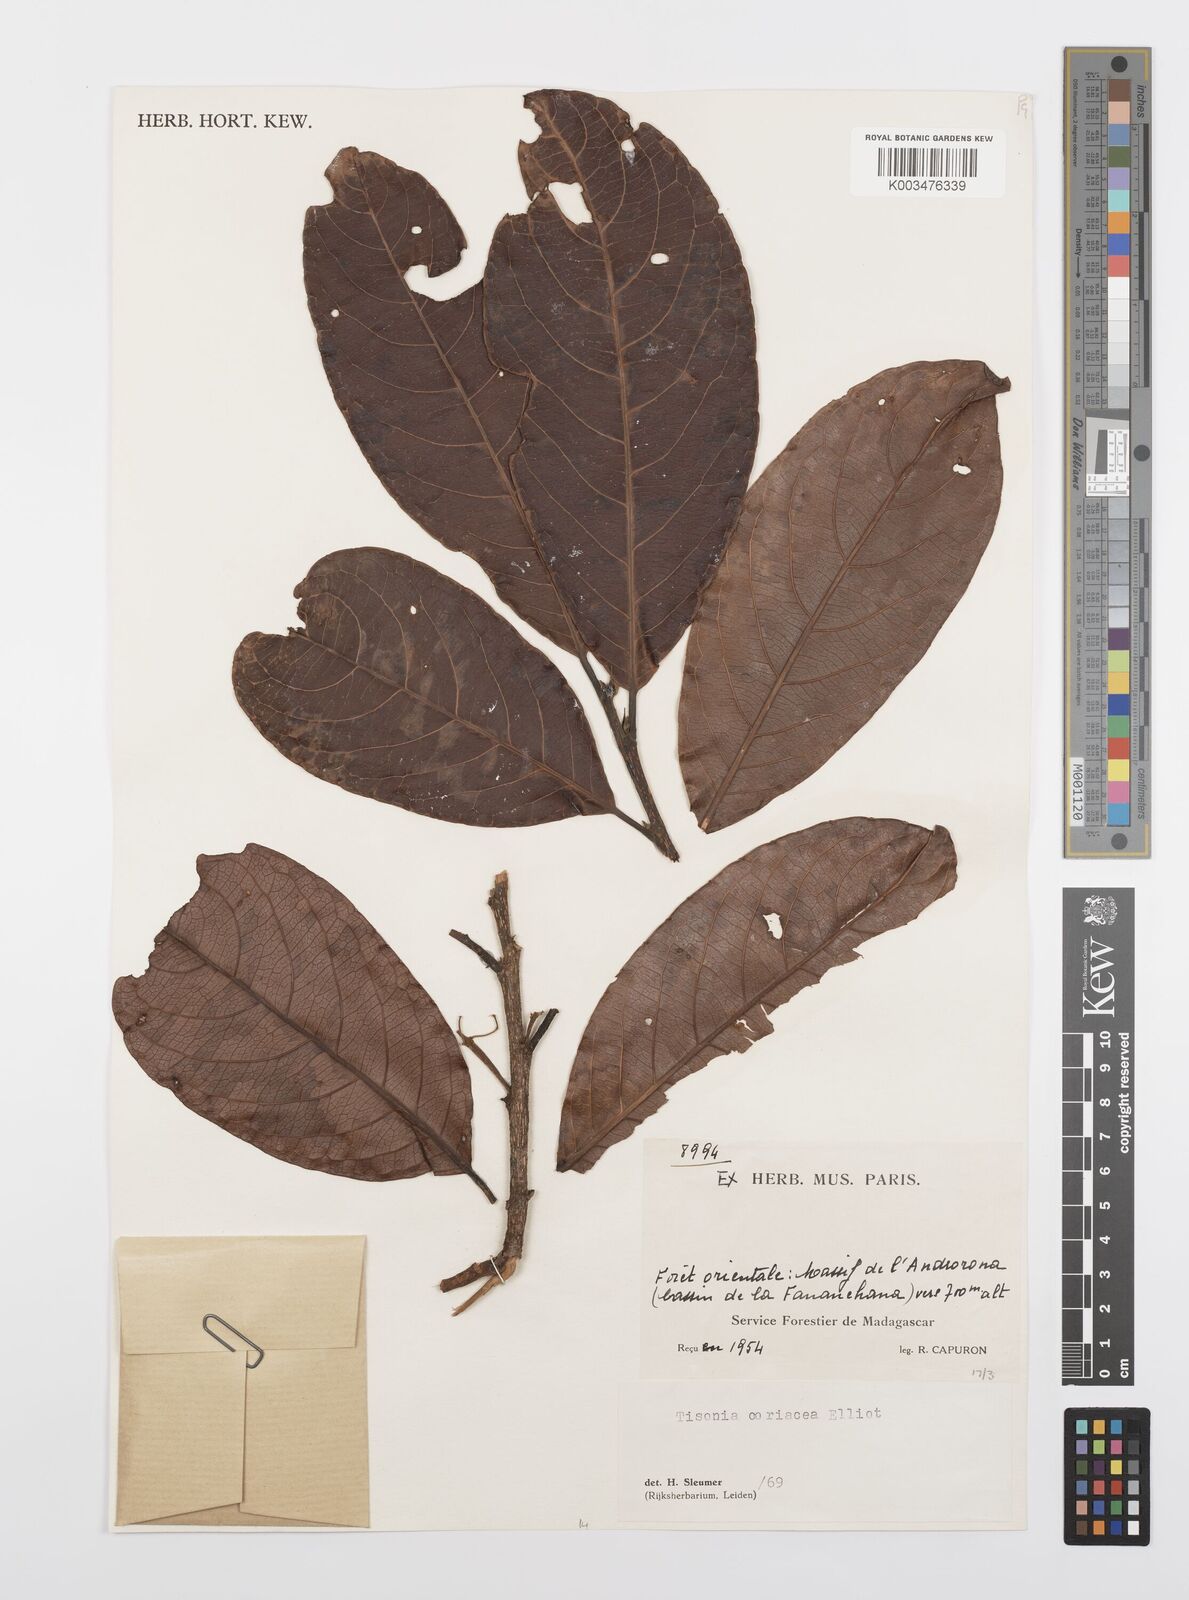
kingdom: Plantae
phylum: Tracheophyta
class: Magnoliopsida
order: Malpighiales
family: Salicaceae
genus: Tisonia
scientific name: Tisonia coriacea
